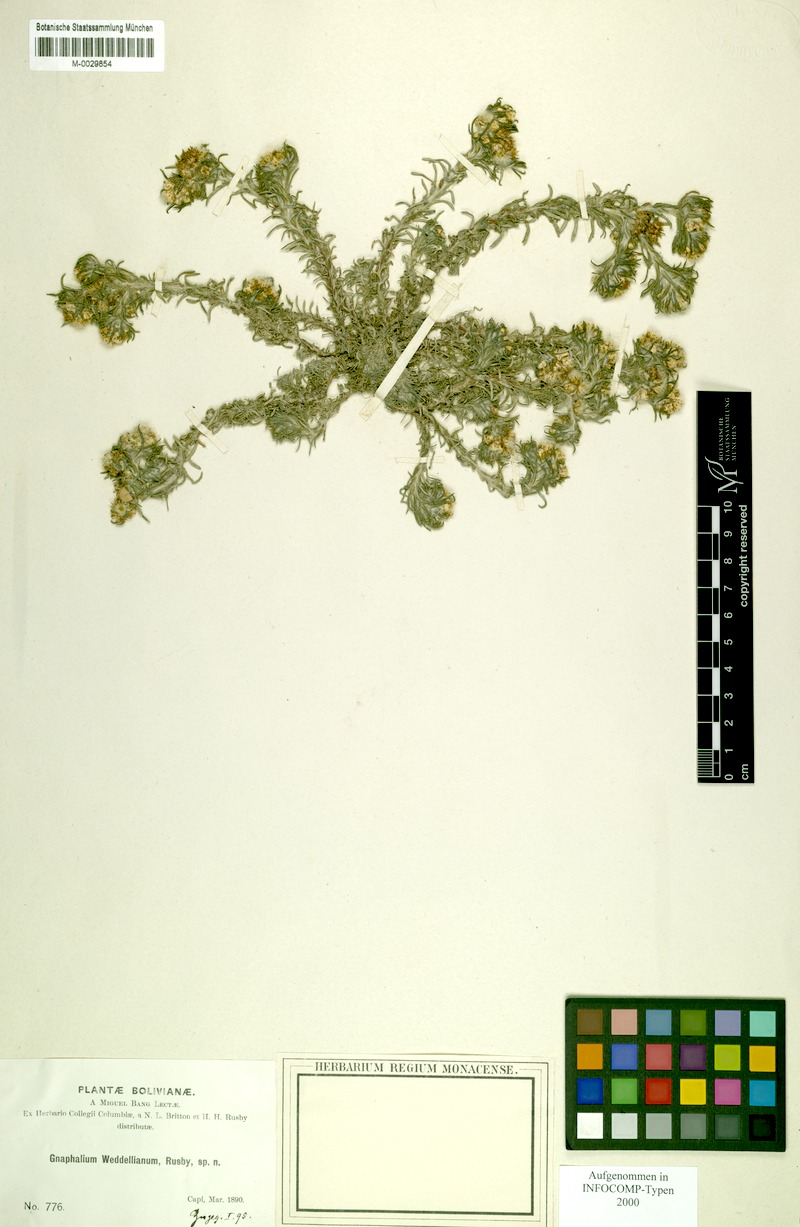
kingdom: Plantae
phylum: Tracheophyta
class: Magnoliopsida
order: Asterales
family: Asteraceae
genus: Gamochaeta
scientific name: Gamochaeta capitata
